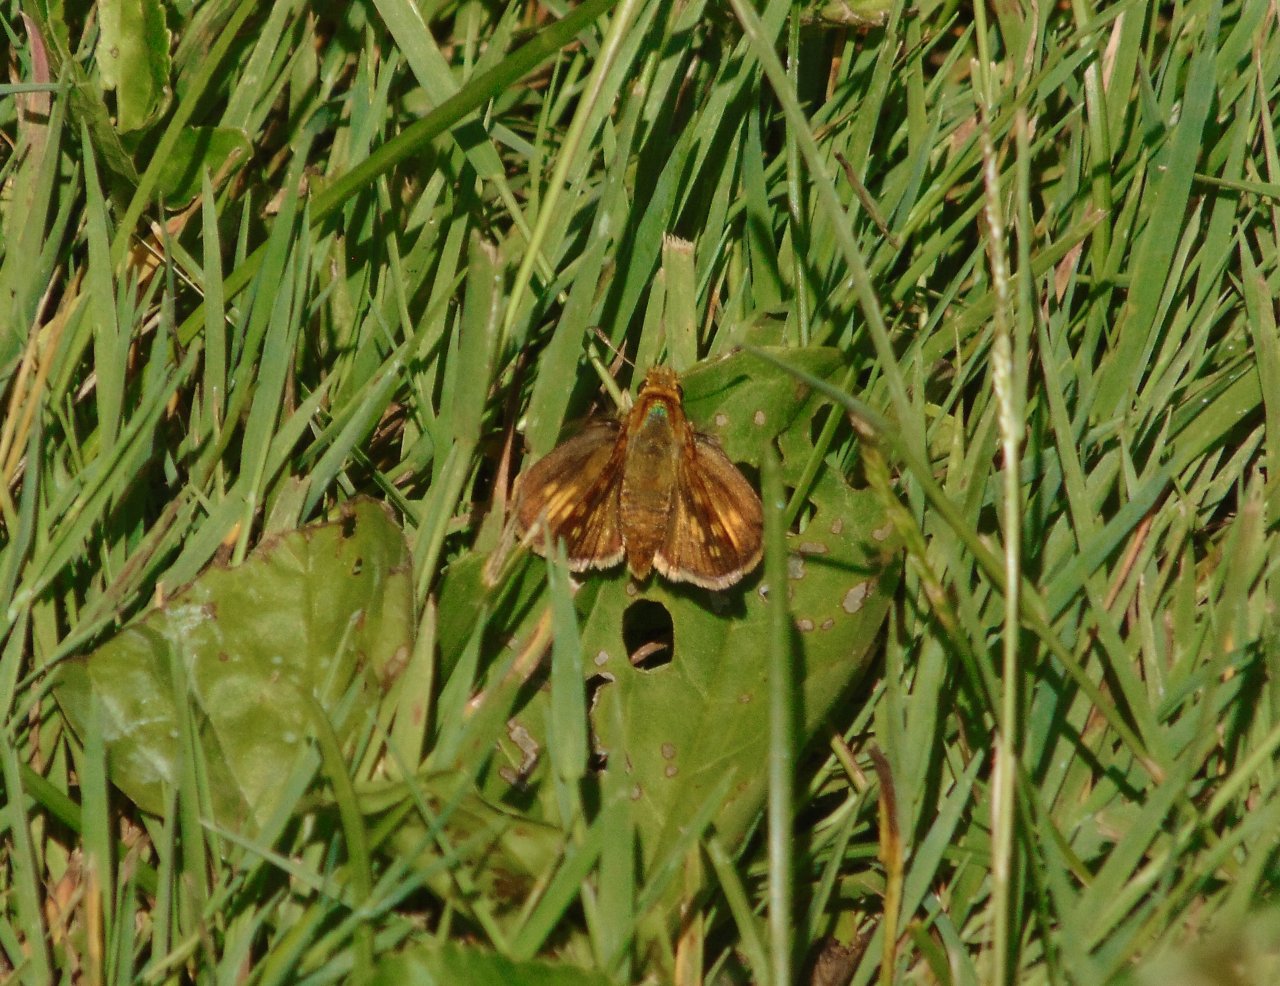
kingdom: Animalia
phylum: Arthropoda
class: Insecta
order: Lepidoptera
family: Hesperiidae
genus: Polites
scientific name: Polites coras
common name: Peck's Skipper
